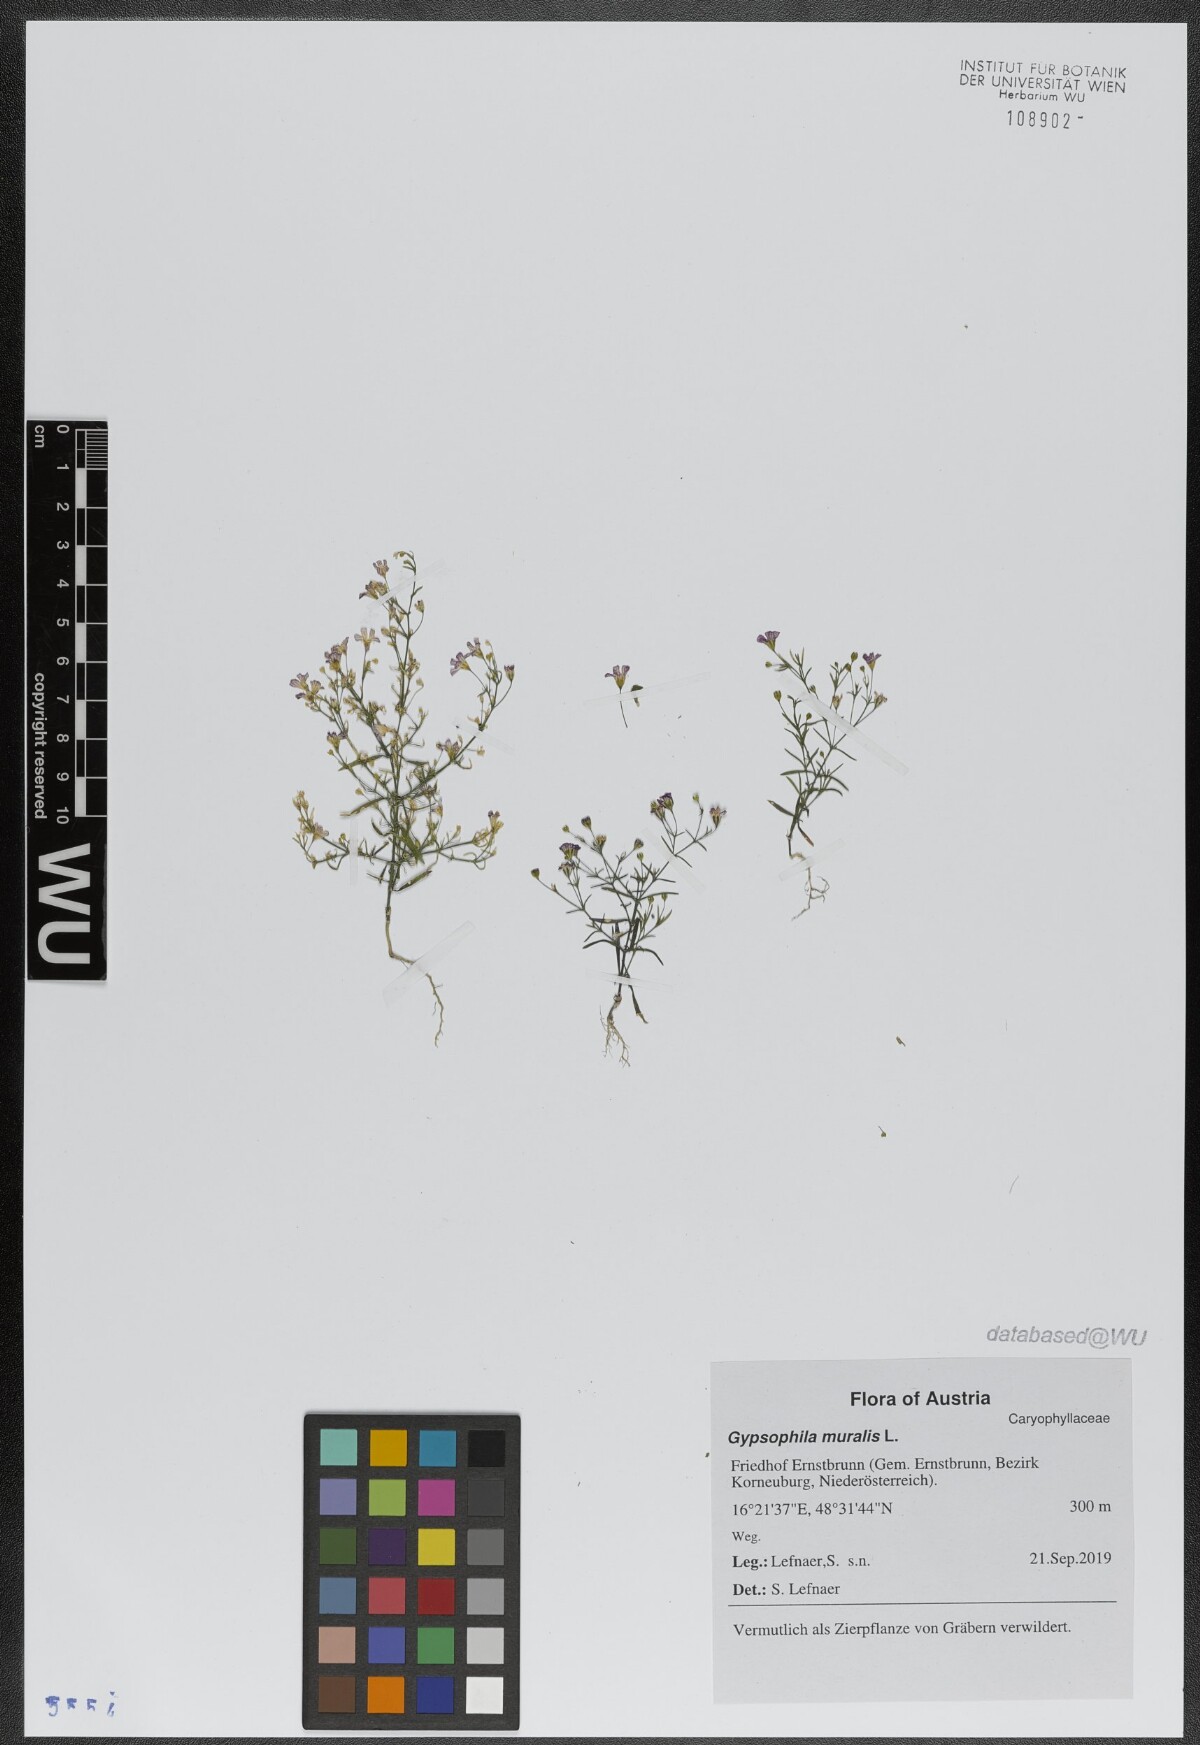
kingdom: Plantae
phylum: Tracheophyta
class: Magnoliopsida
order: Caryophyllales
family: Caryophyllaceae
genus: Psammophiliella
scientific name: Psammophiliella muralis
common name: Cushion baby's-breath
